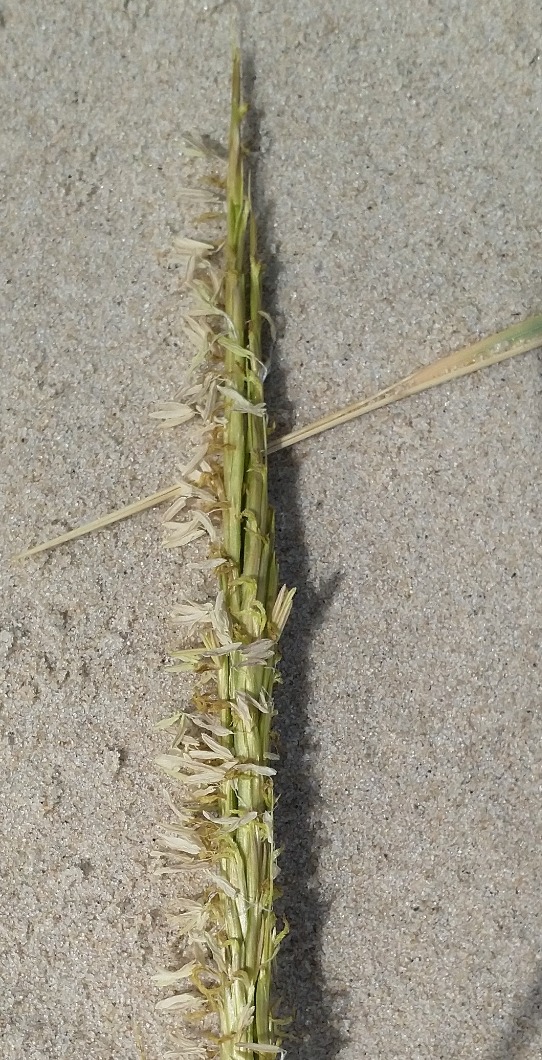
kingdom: Plantae
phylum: Tracheophyta
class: Liliopsida
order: Poales
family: Poaceae
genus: Sporobolus
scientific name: Sporobolus alterniflorus
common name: Amerikansk vadegræs
